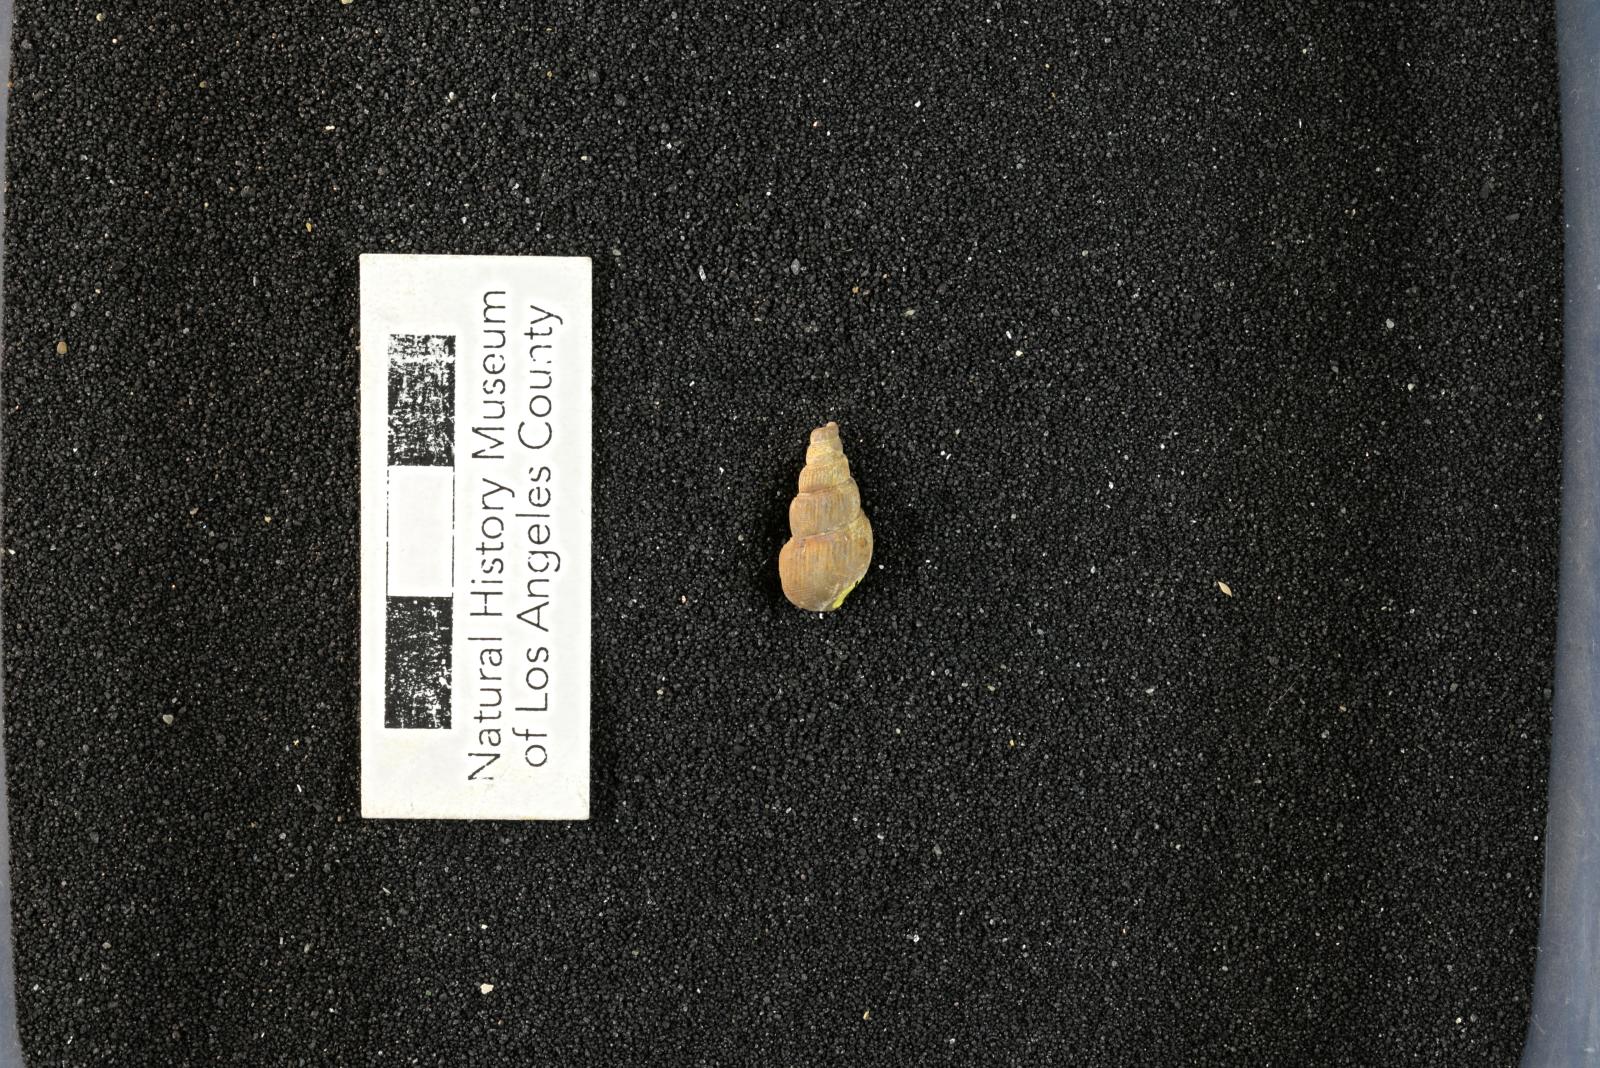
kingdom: Animalia
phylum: Mollusca
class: Gastropoda
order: Littorinimorpha
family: Aporrhaidae
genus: Latiala
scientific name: Latiala sigma
